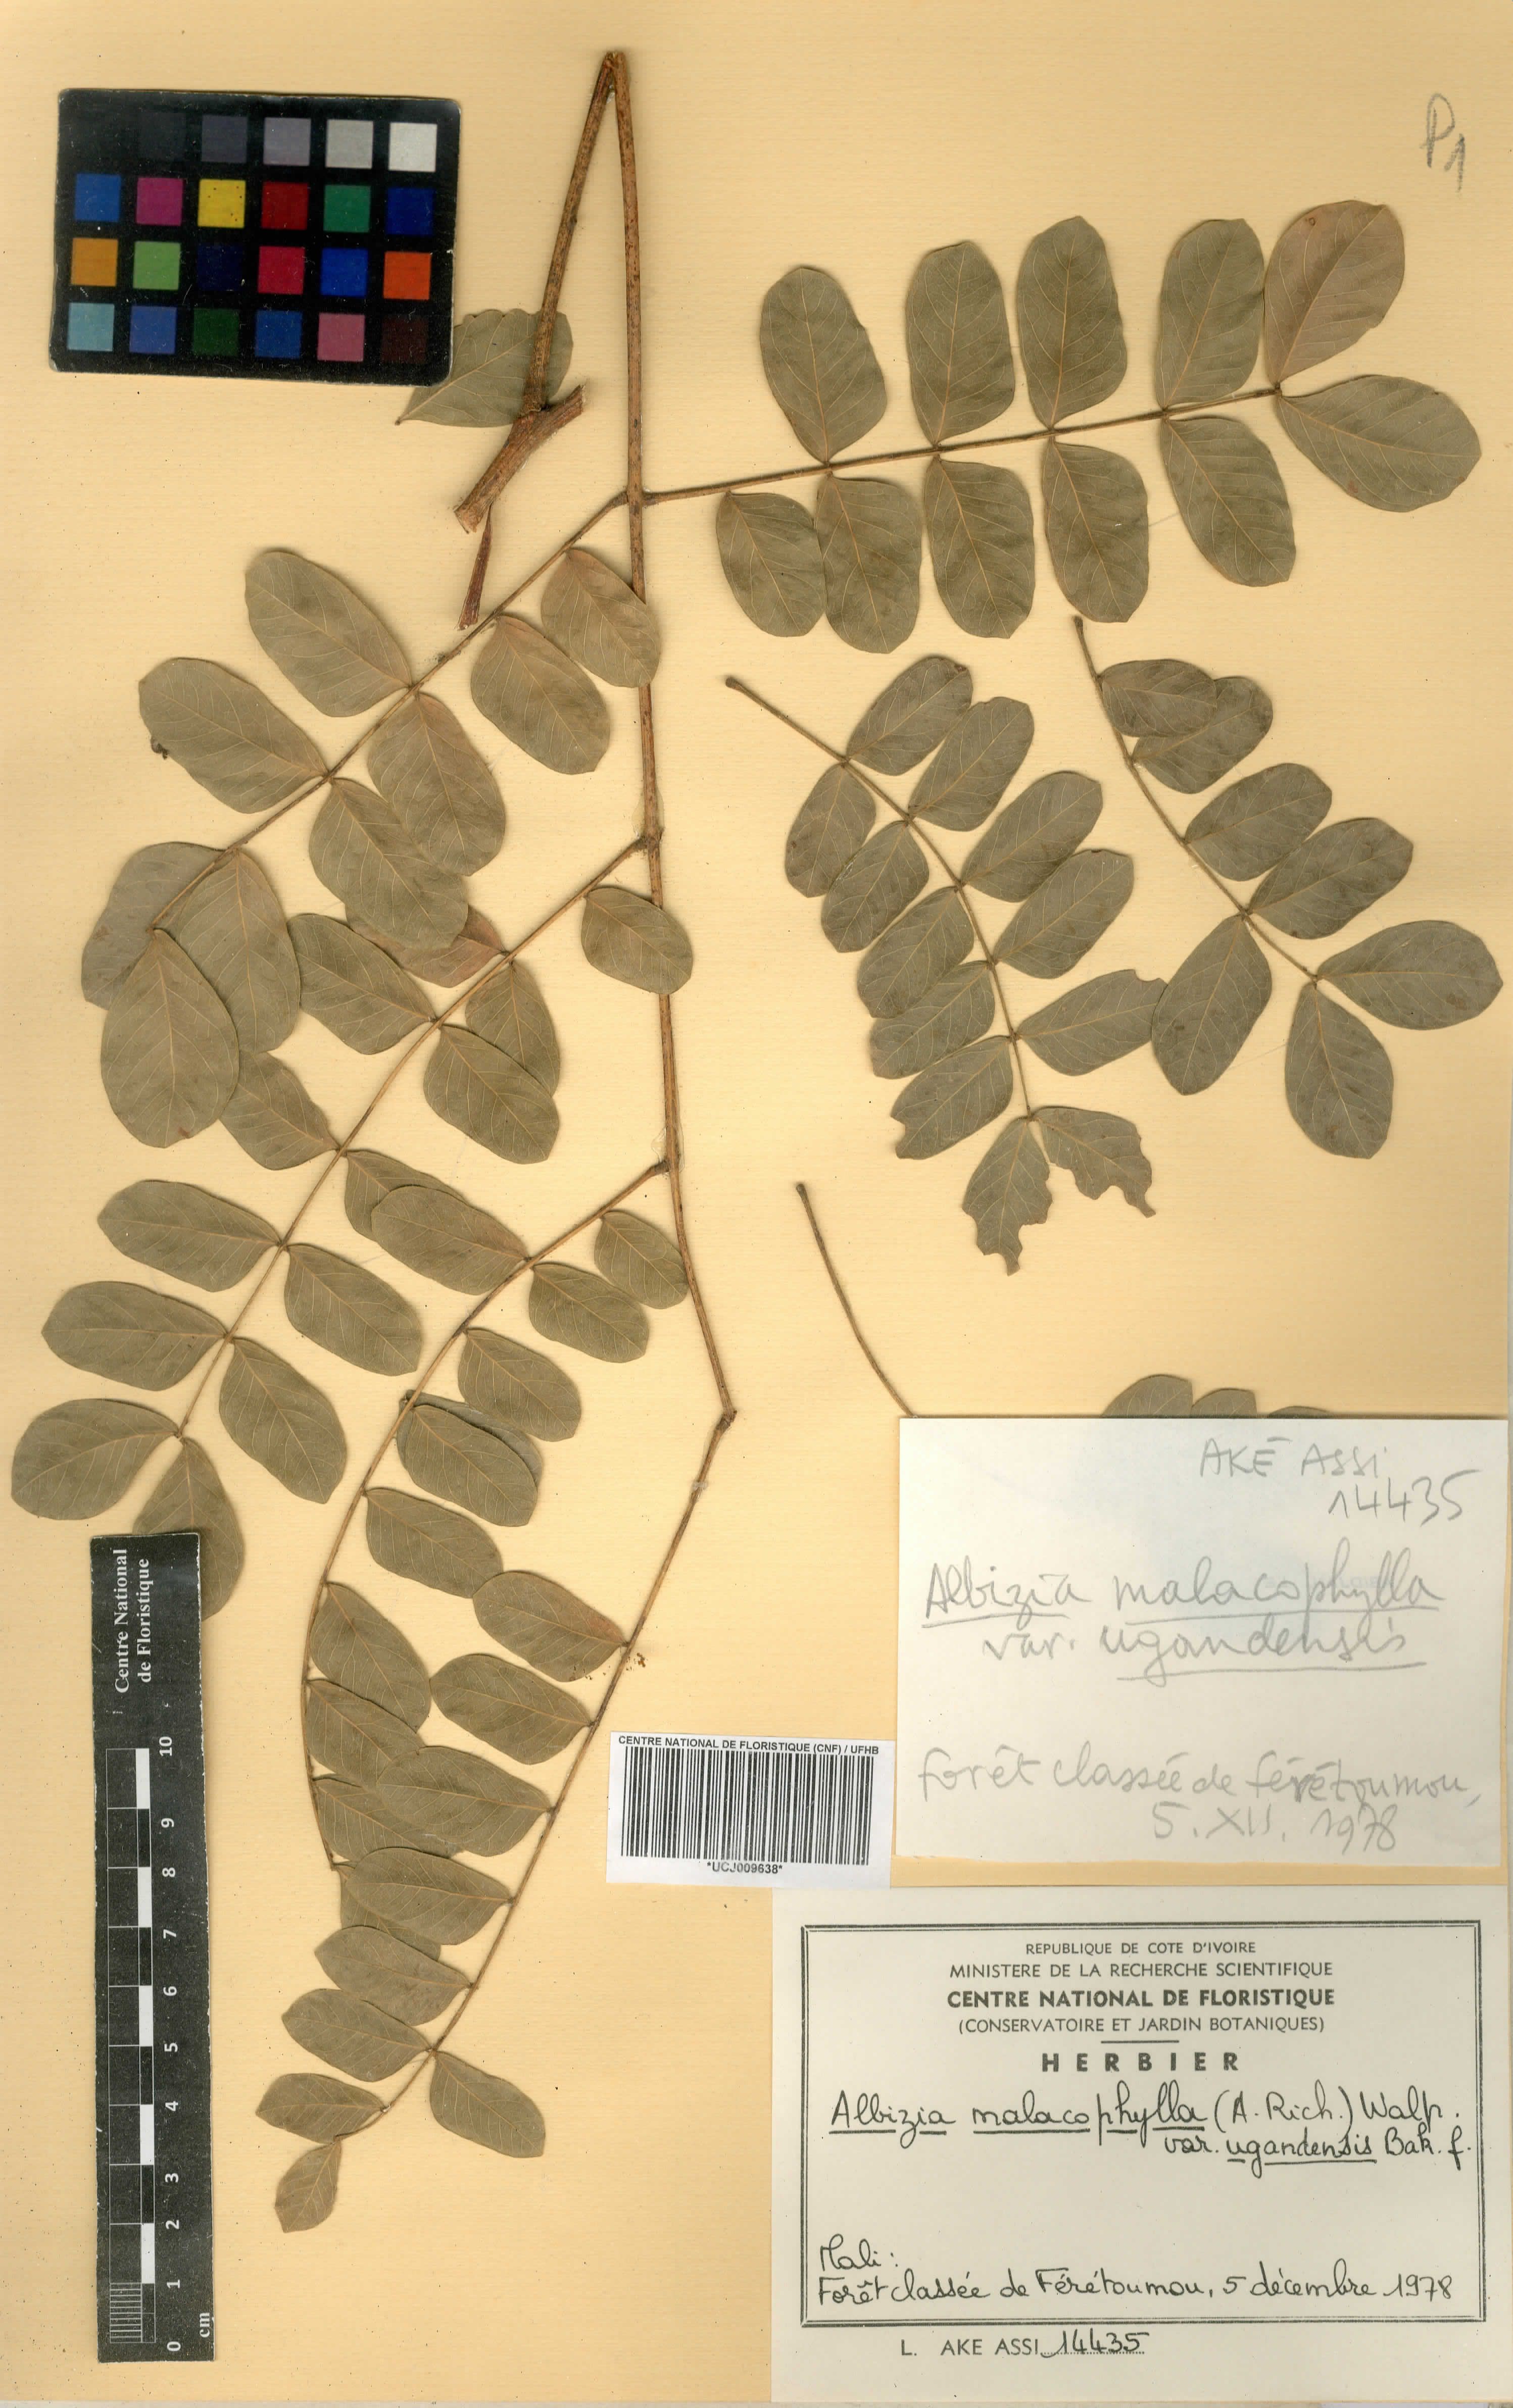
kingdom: Plantae
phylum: Tracheophyta
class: Magnoliopsida
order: Fabales
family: Fabaceae
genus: Albizia
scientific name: Albizia malacophylla
